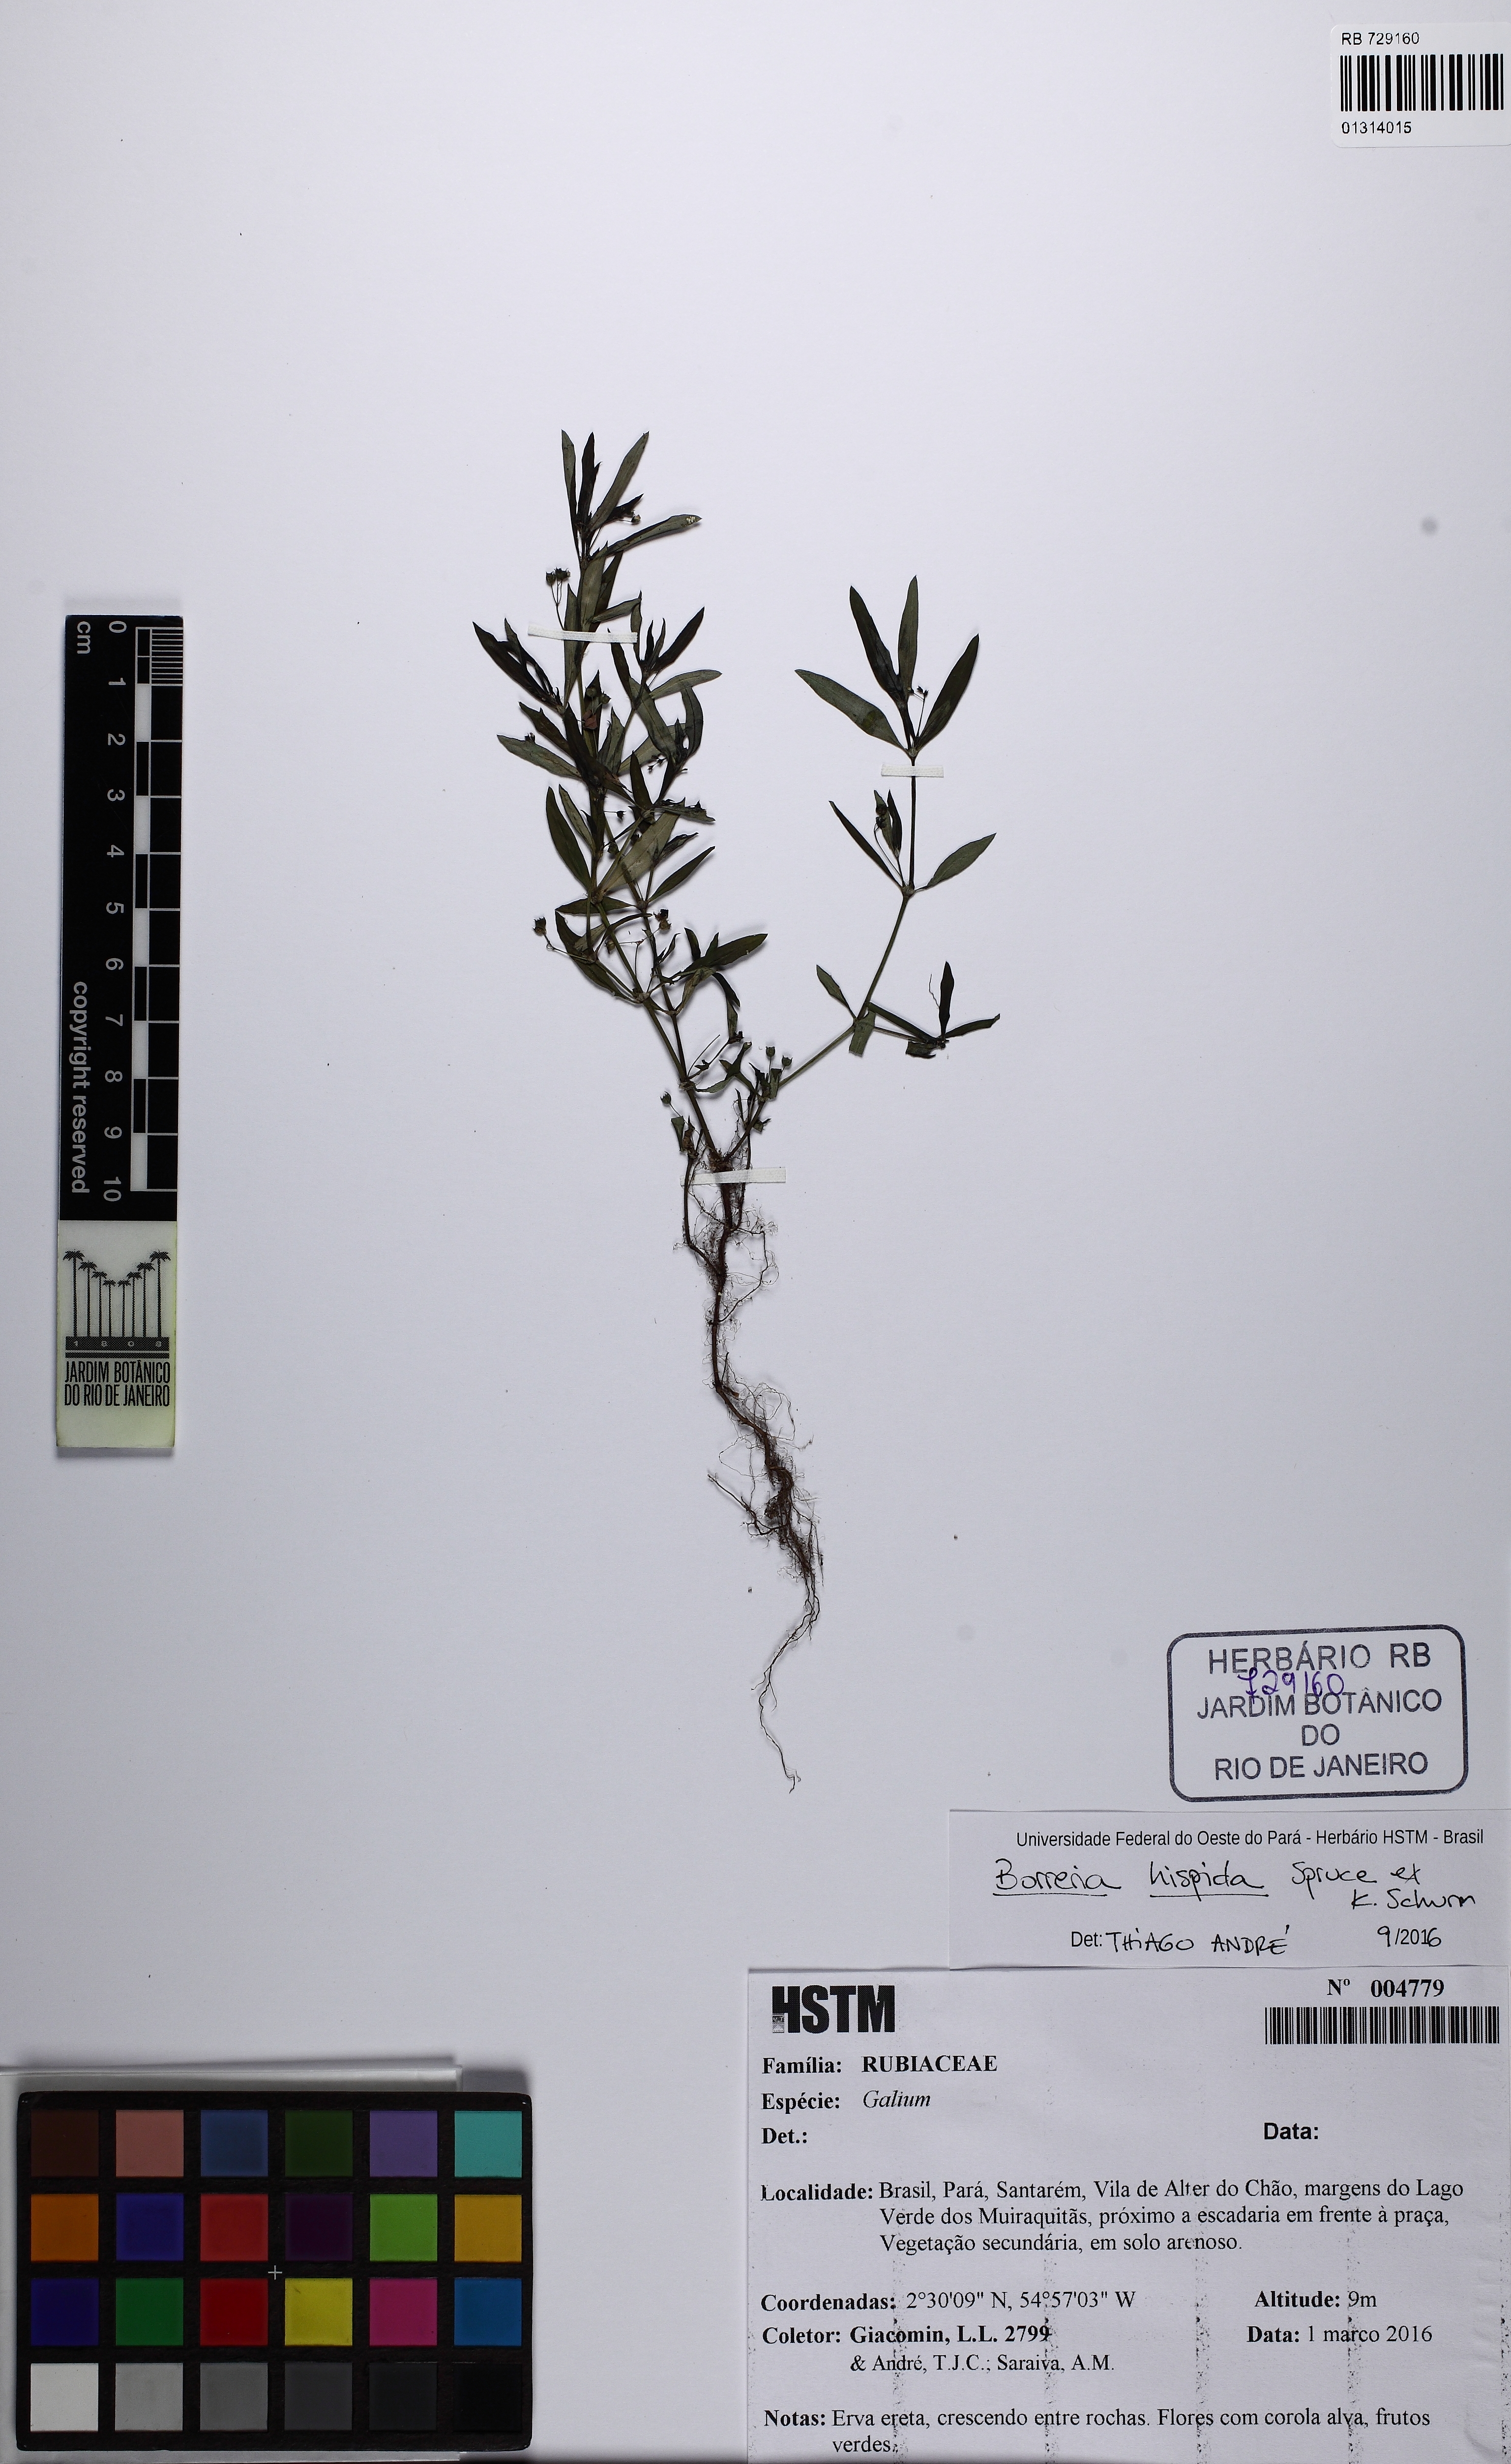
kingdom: Plantae
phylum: Tracheophyta
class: Magnoliopsida
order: Gentianales
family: Rubiaceae
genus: Spermacoce
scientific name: Spermacoce hispida
